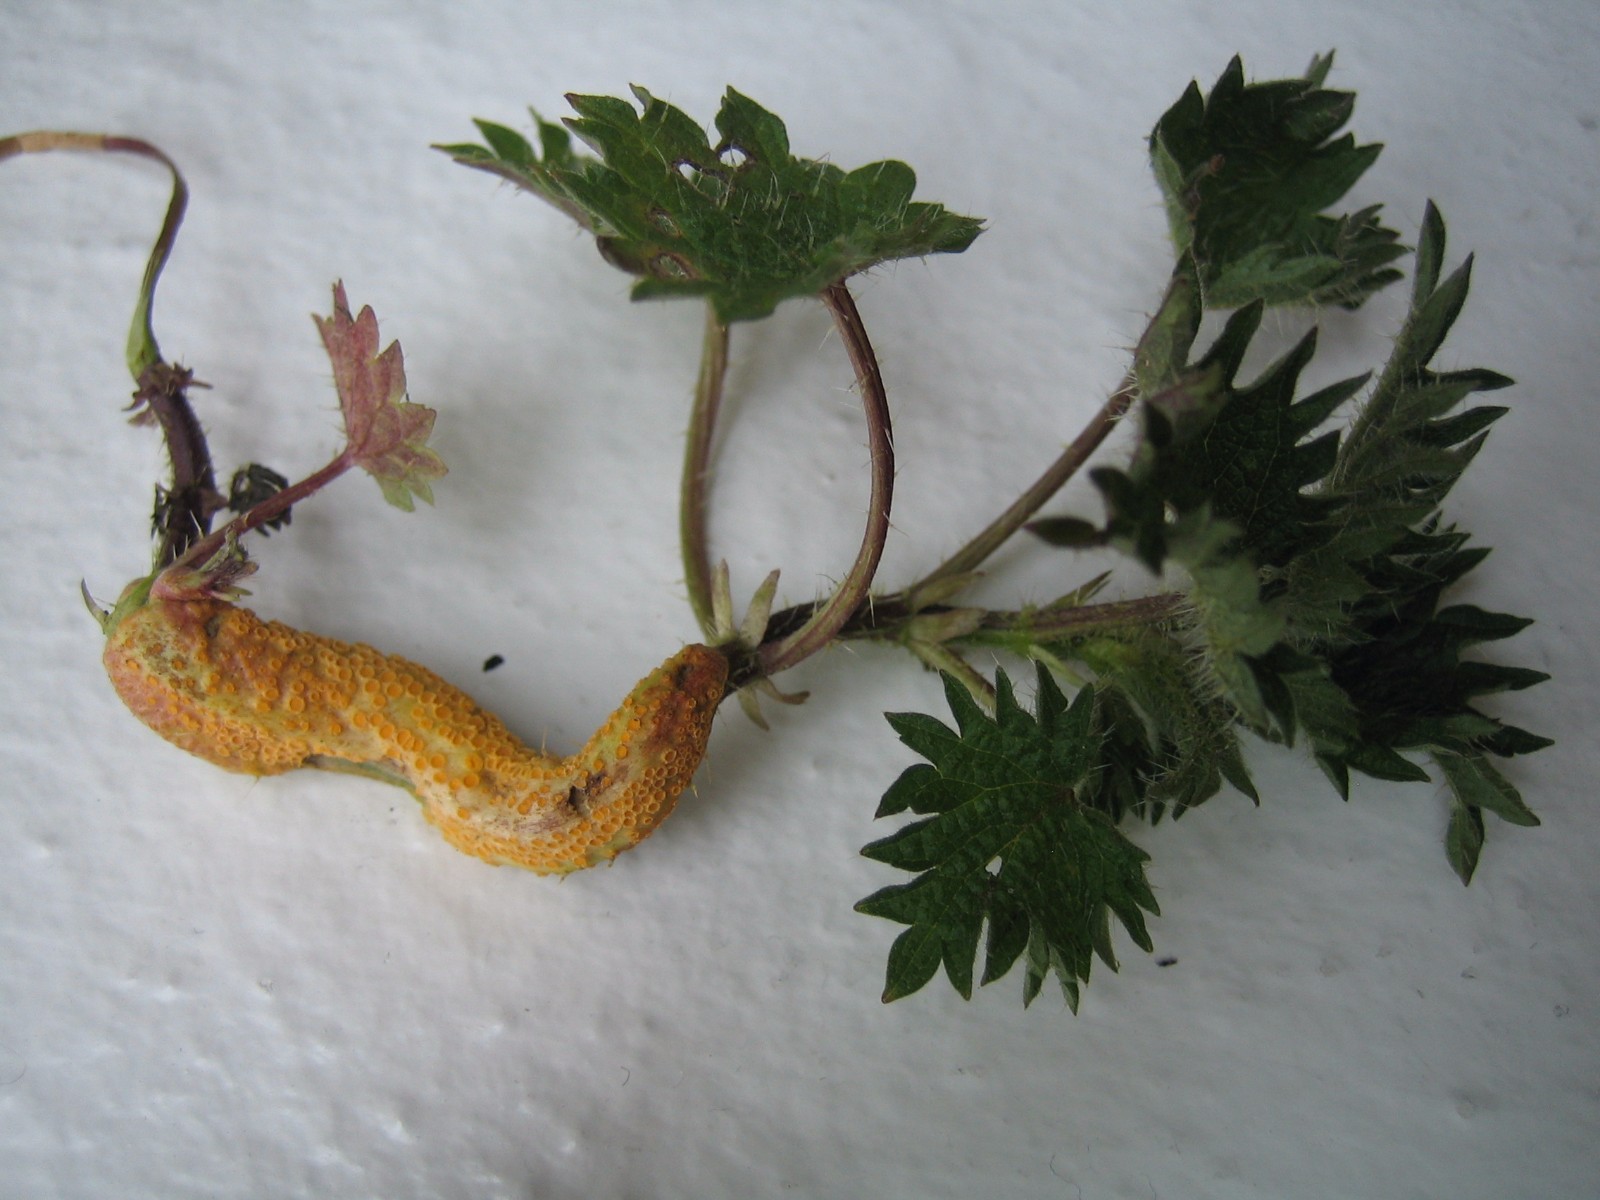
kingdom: Fungi
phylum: Basidiomycota
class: Pucciniomycetes
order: Pucciniales
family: Pucciniaceae
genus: Puccinia
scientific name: Puccinia urticata
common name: nældegalle-tvecellerust
